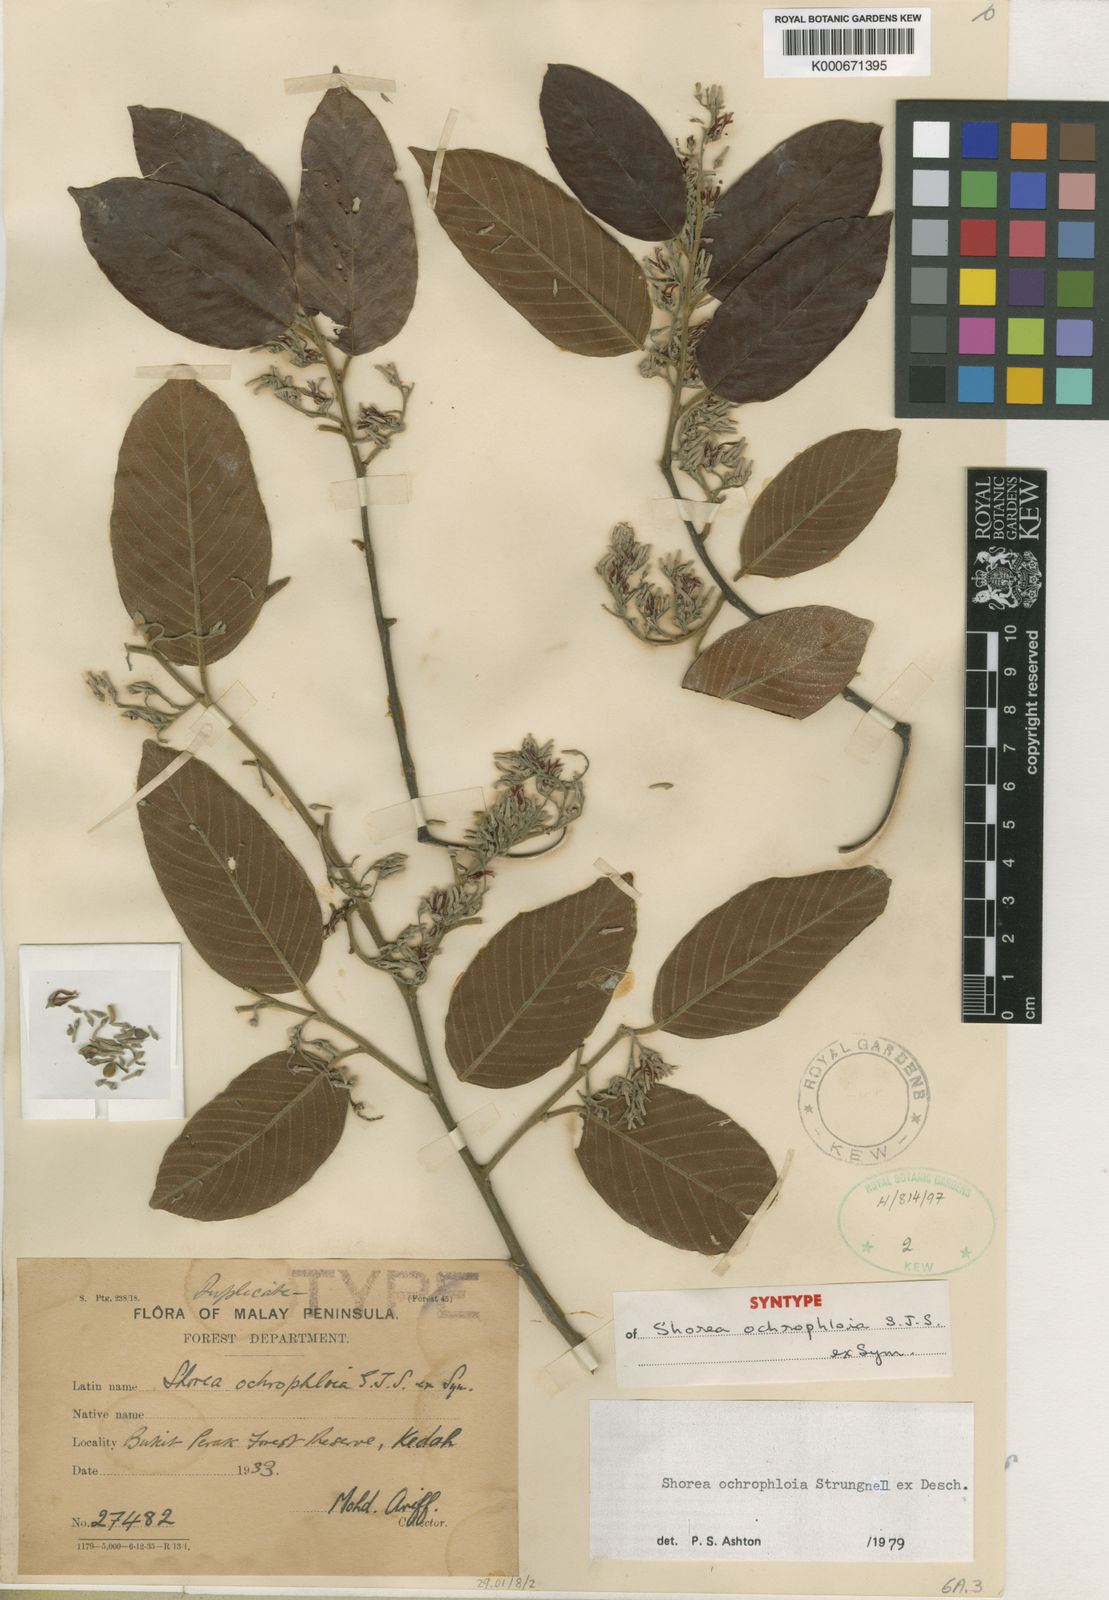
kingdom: Plantae
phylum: Tracheophyta
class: Magnoliopsida
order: Malvales
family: Dipterocarpaceae
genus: Shorea
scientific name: Shorea
